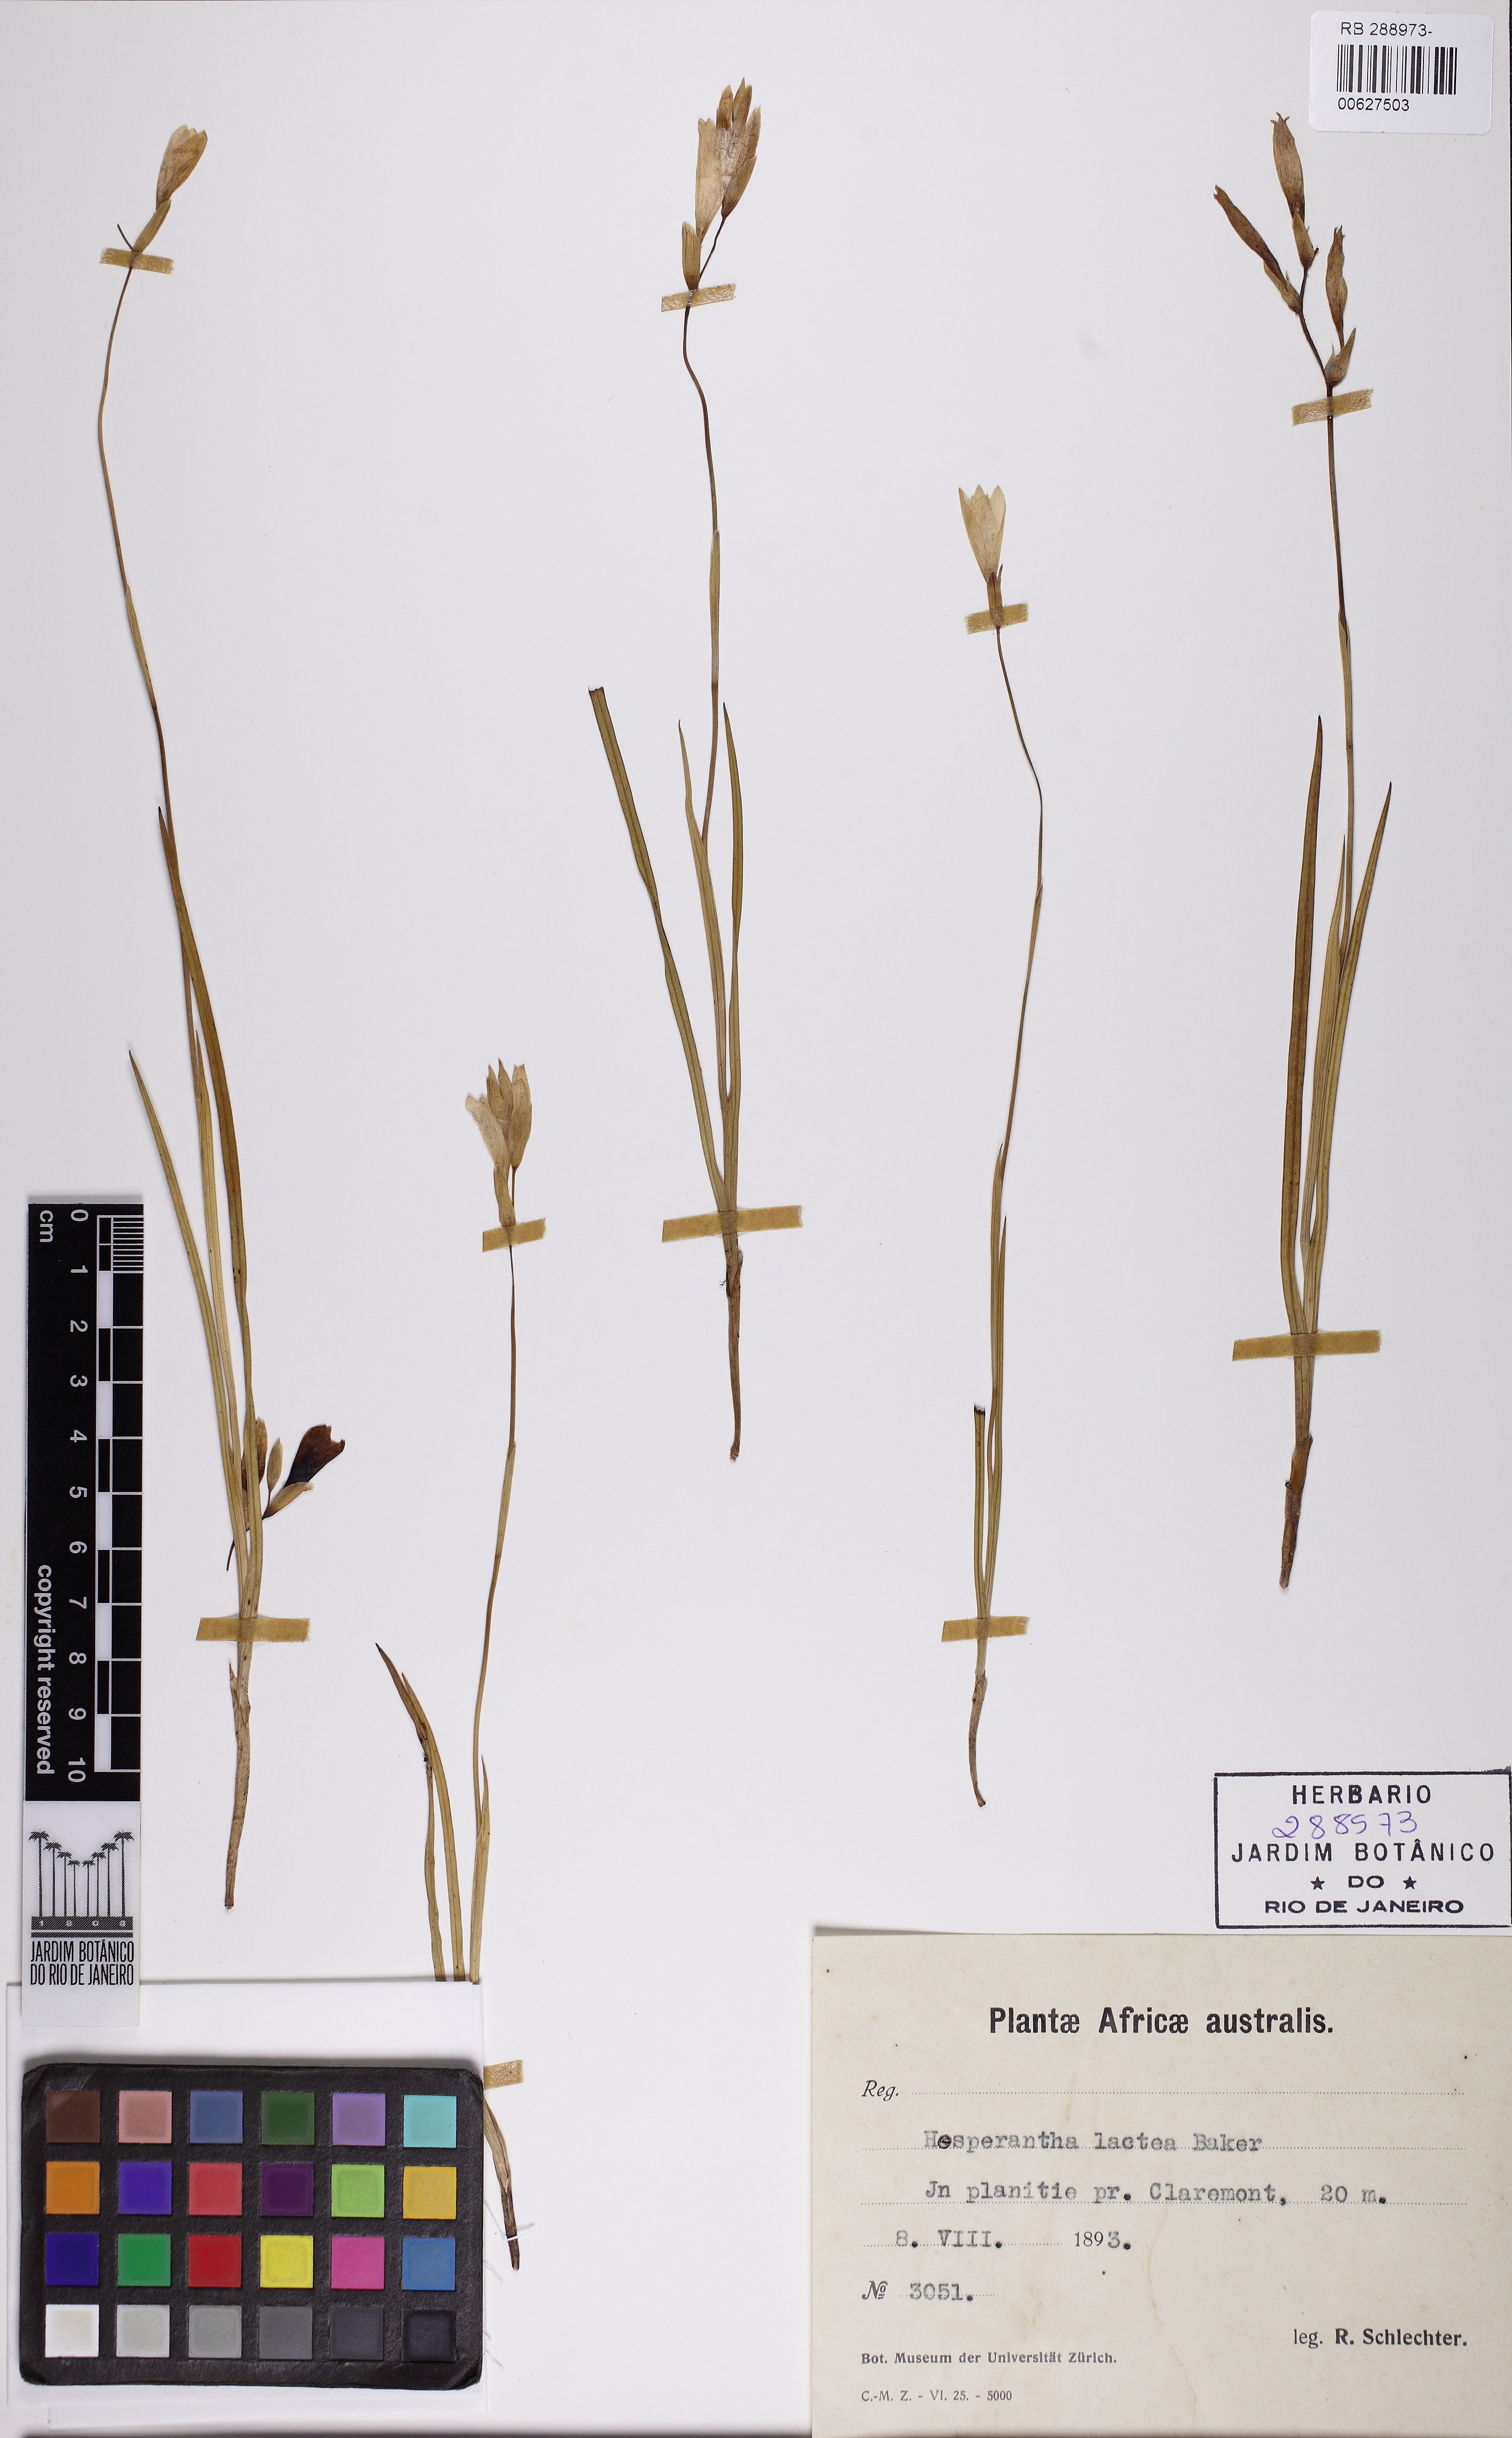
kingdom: Plantae
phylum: Tracheophyta
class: Liliopsida
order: Asparagales
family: Iridaceae
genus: Hesperantha
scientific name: Hesperantha lactea
